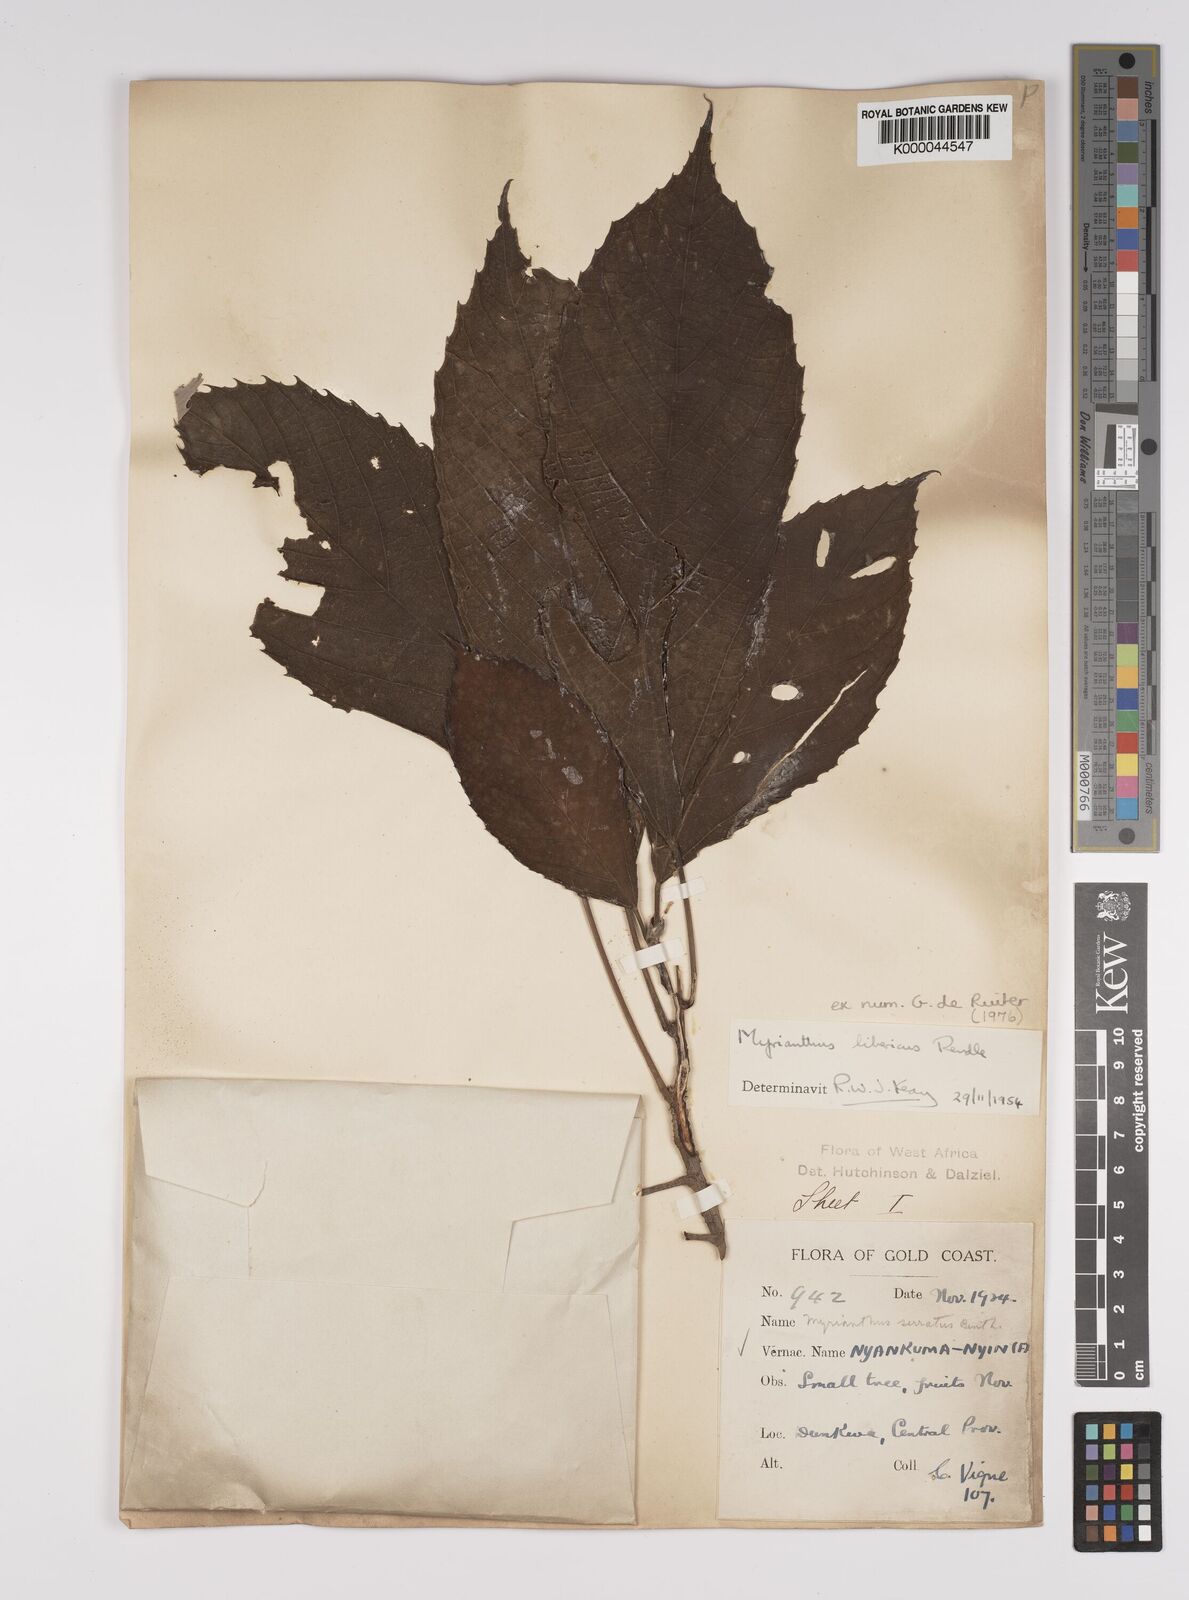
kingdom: Plantae
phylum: Tracheophyta
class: Magnoliopsida
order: Rosales
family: Urticaceae
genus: Myrianthus
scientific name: Myrianthus libericus
